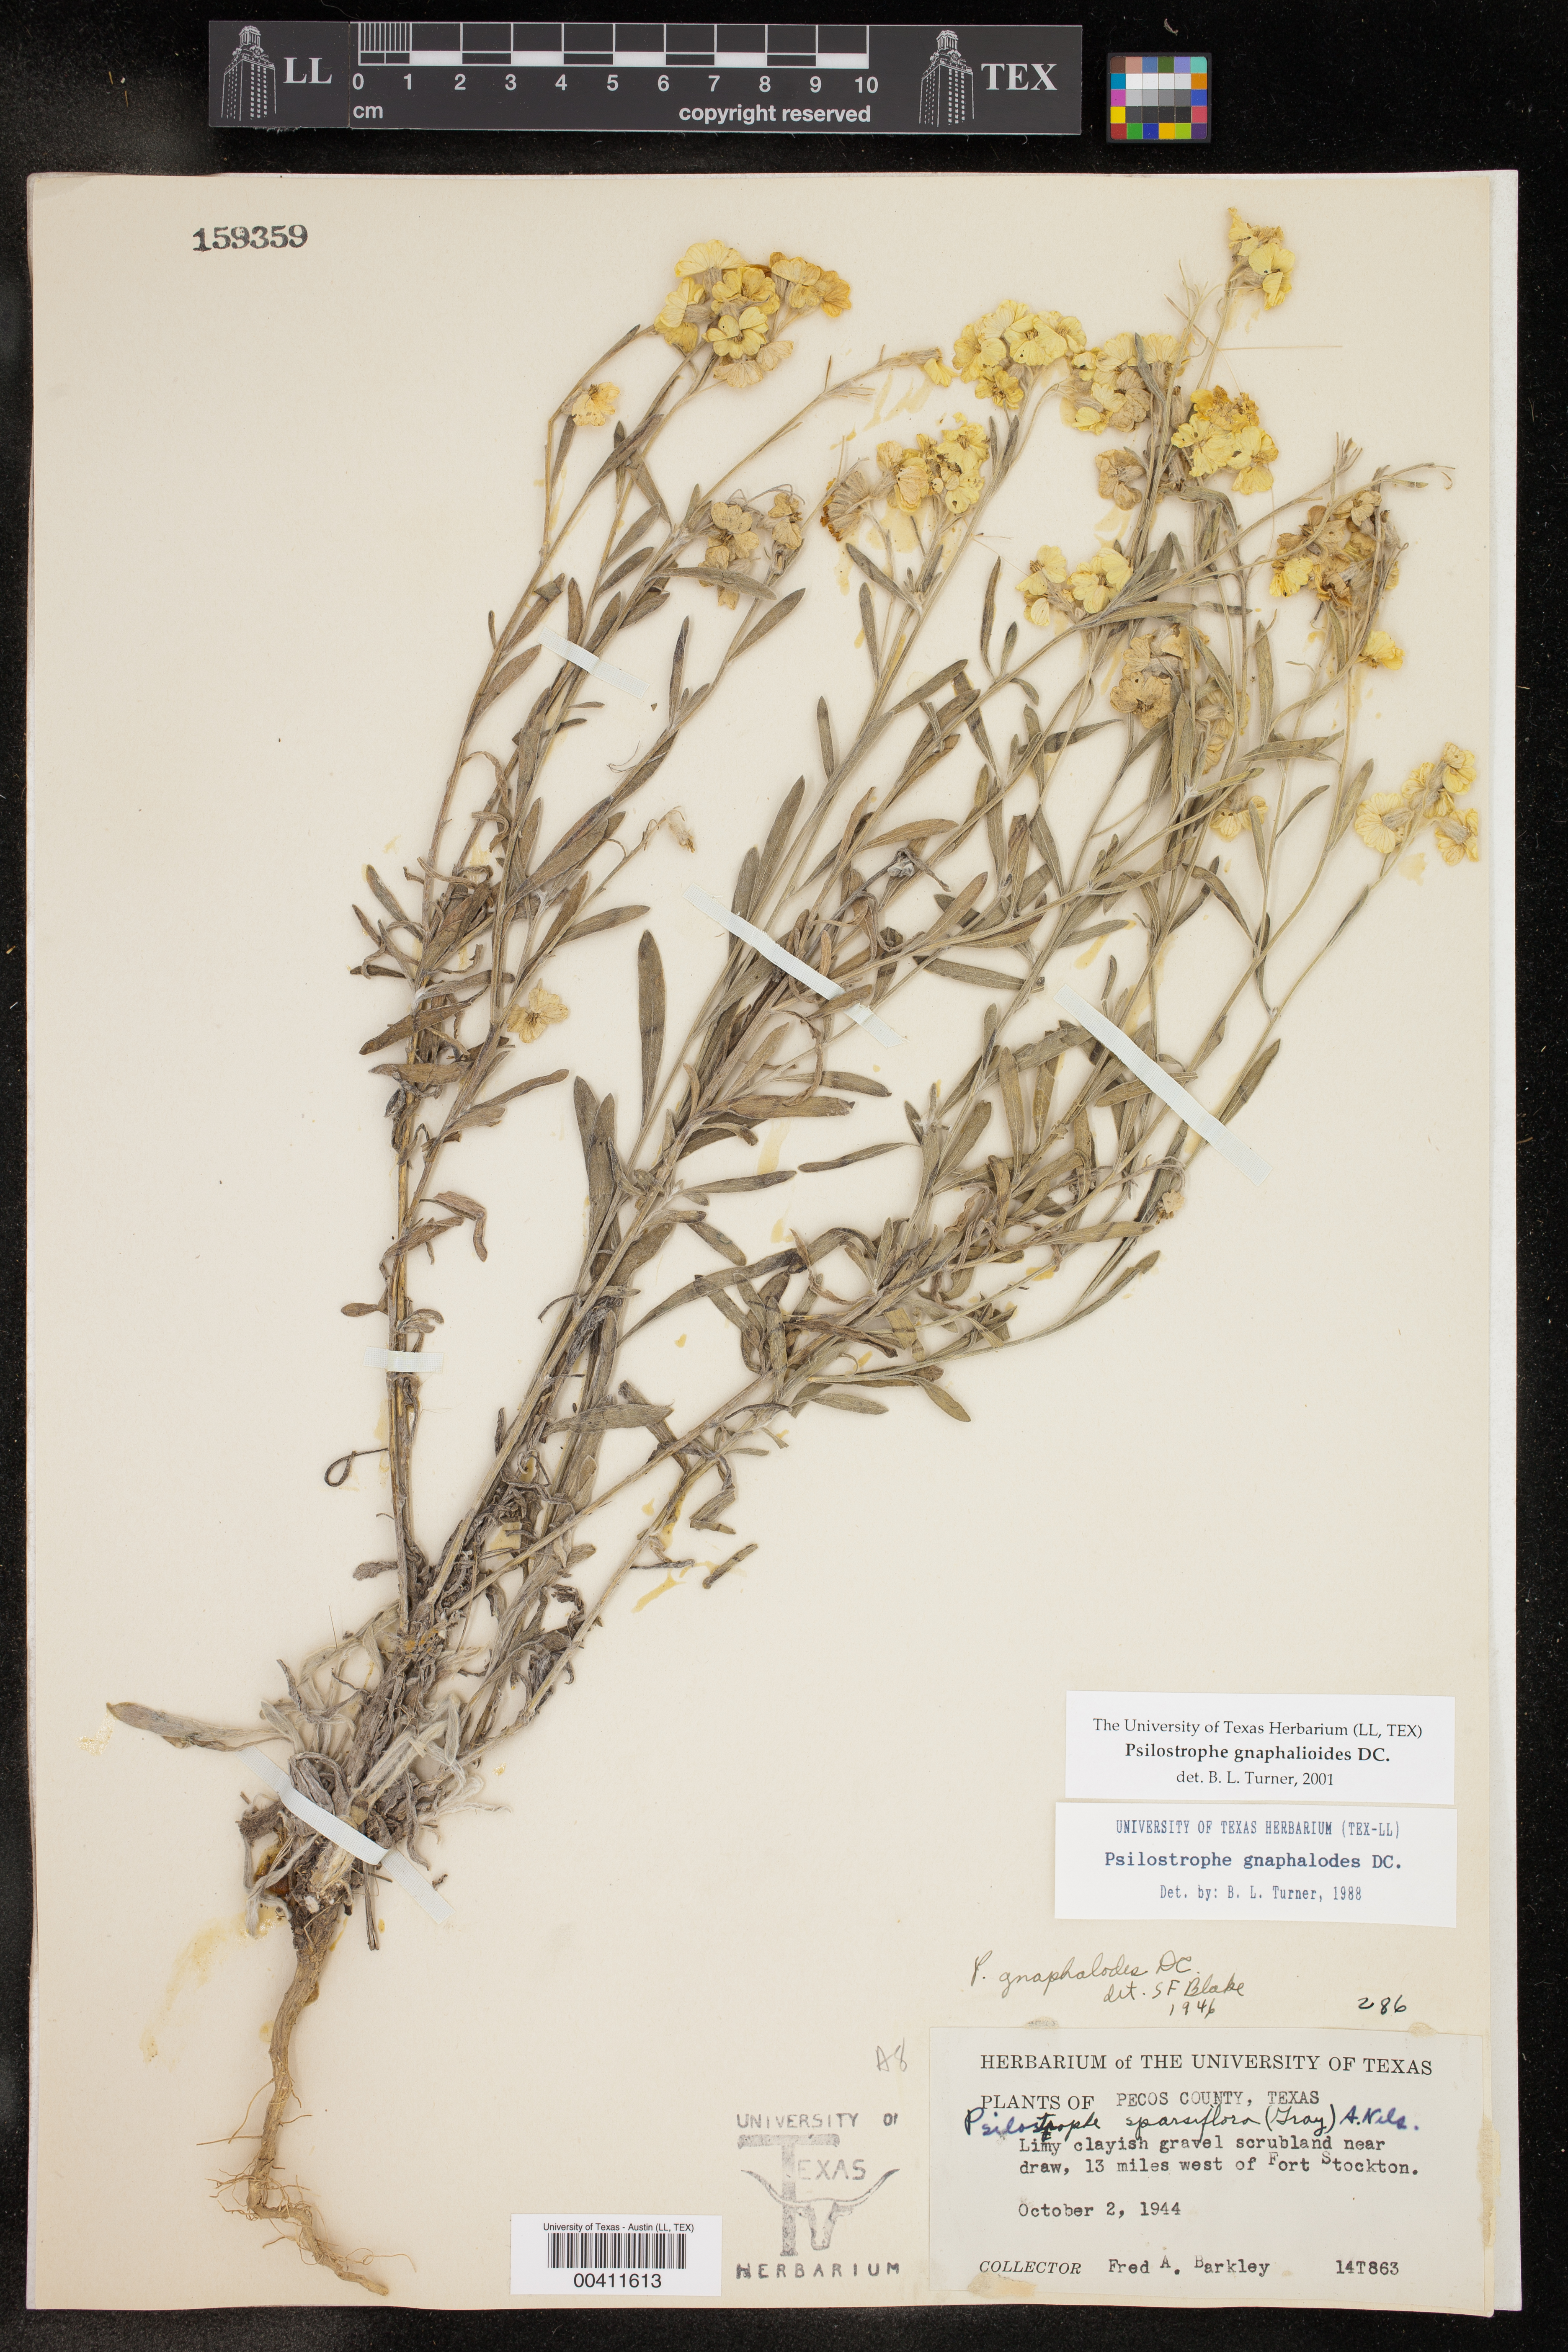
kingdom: Plantae
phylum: Tracheophyta
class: Magnoliopsida
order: Asterales
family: Asteraceae
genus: Psilostrophe
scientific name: Psilostrophe gnaphalioides
